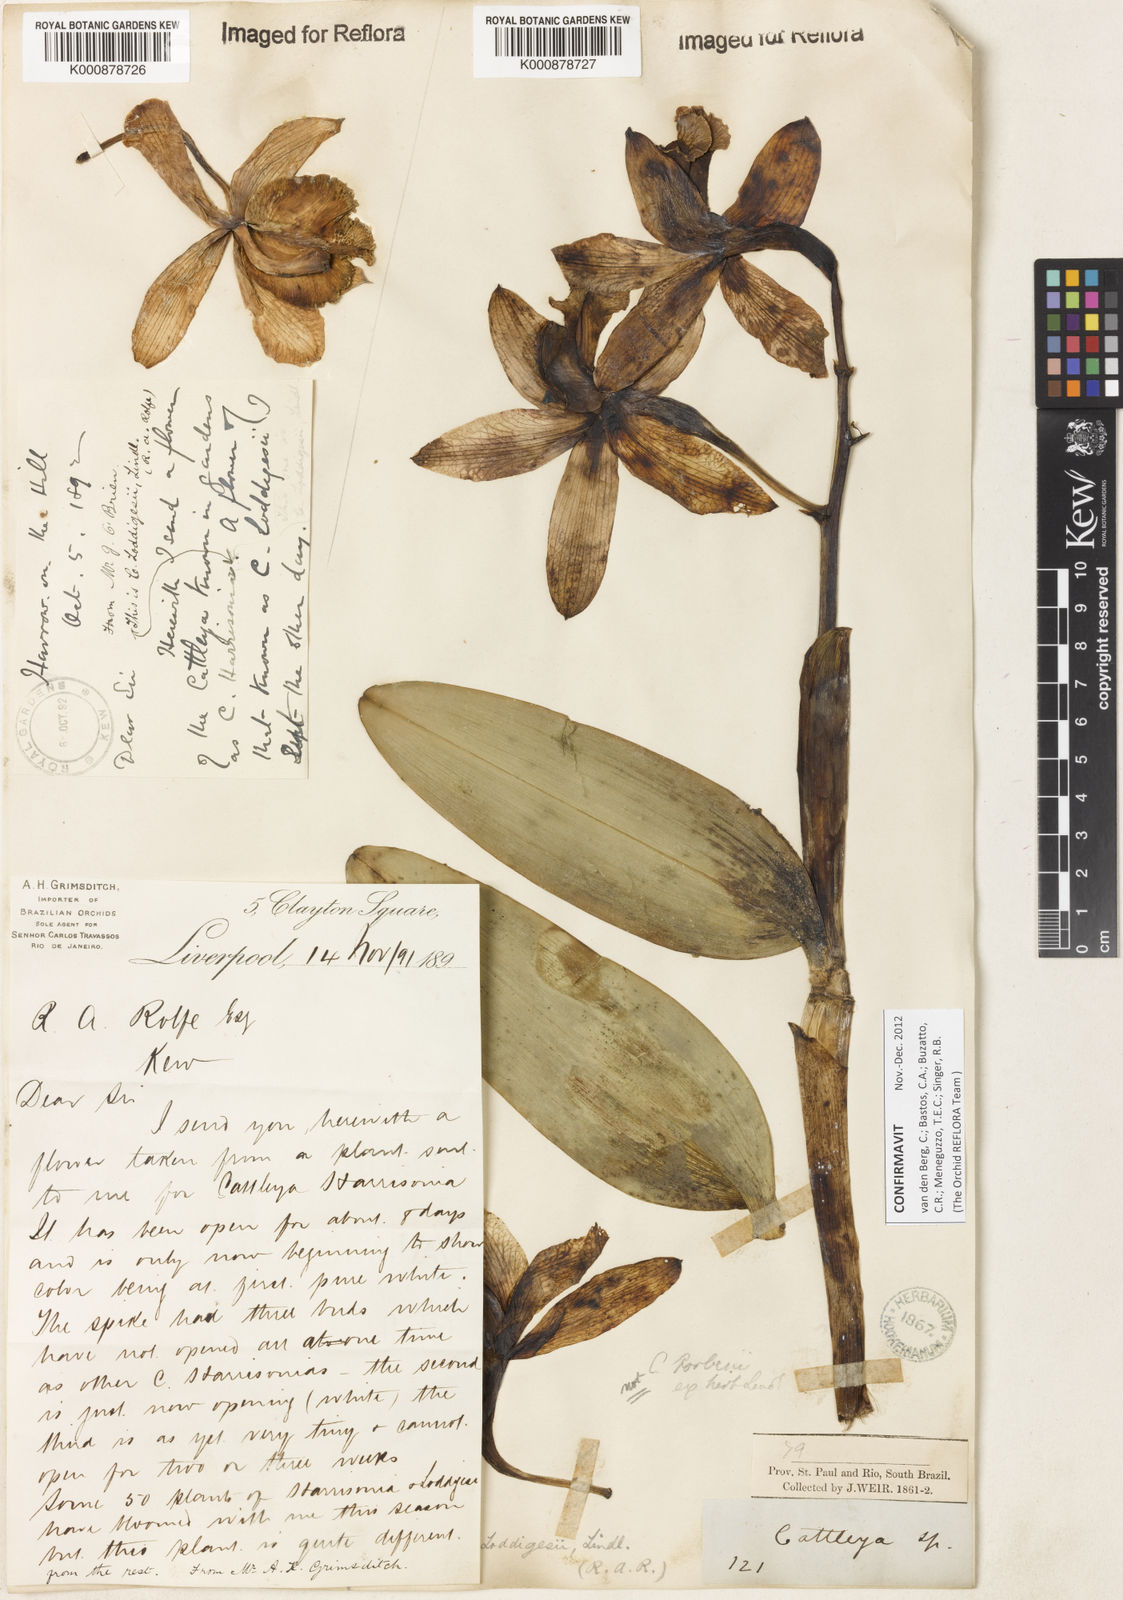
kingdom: Plantae
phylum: Tracheophyta
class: Liliopsida
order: Asparagales
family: Orchidaceae
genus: Cattleya
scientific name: Cattleya loddigesii
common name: Loddiges's cattleya
